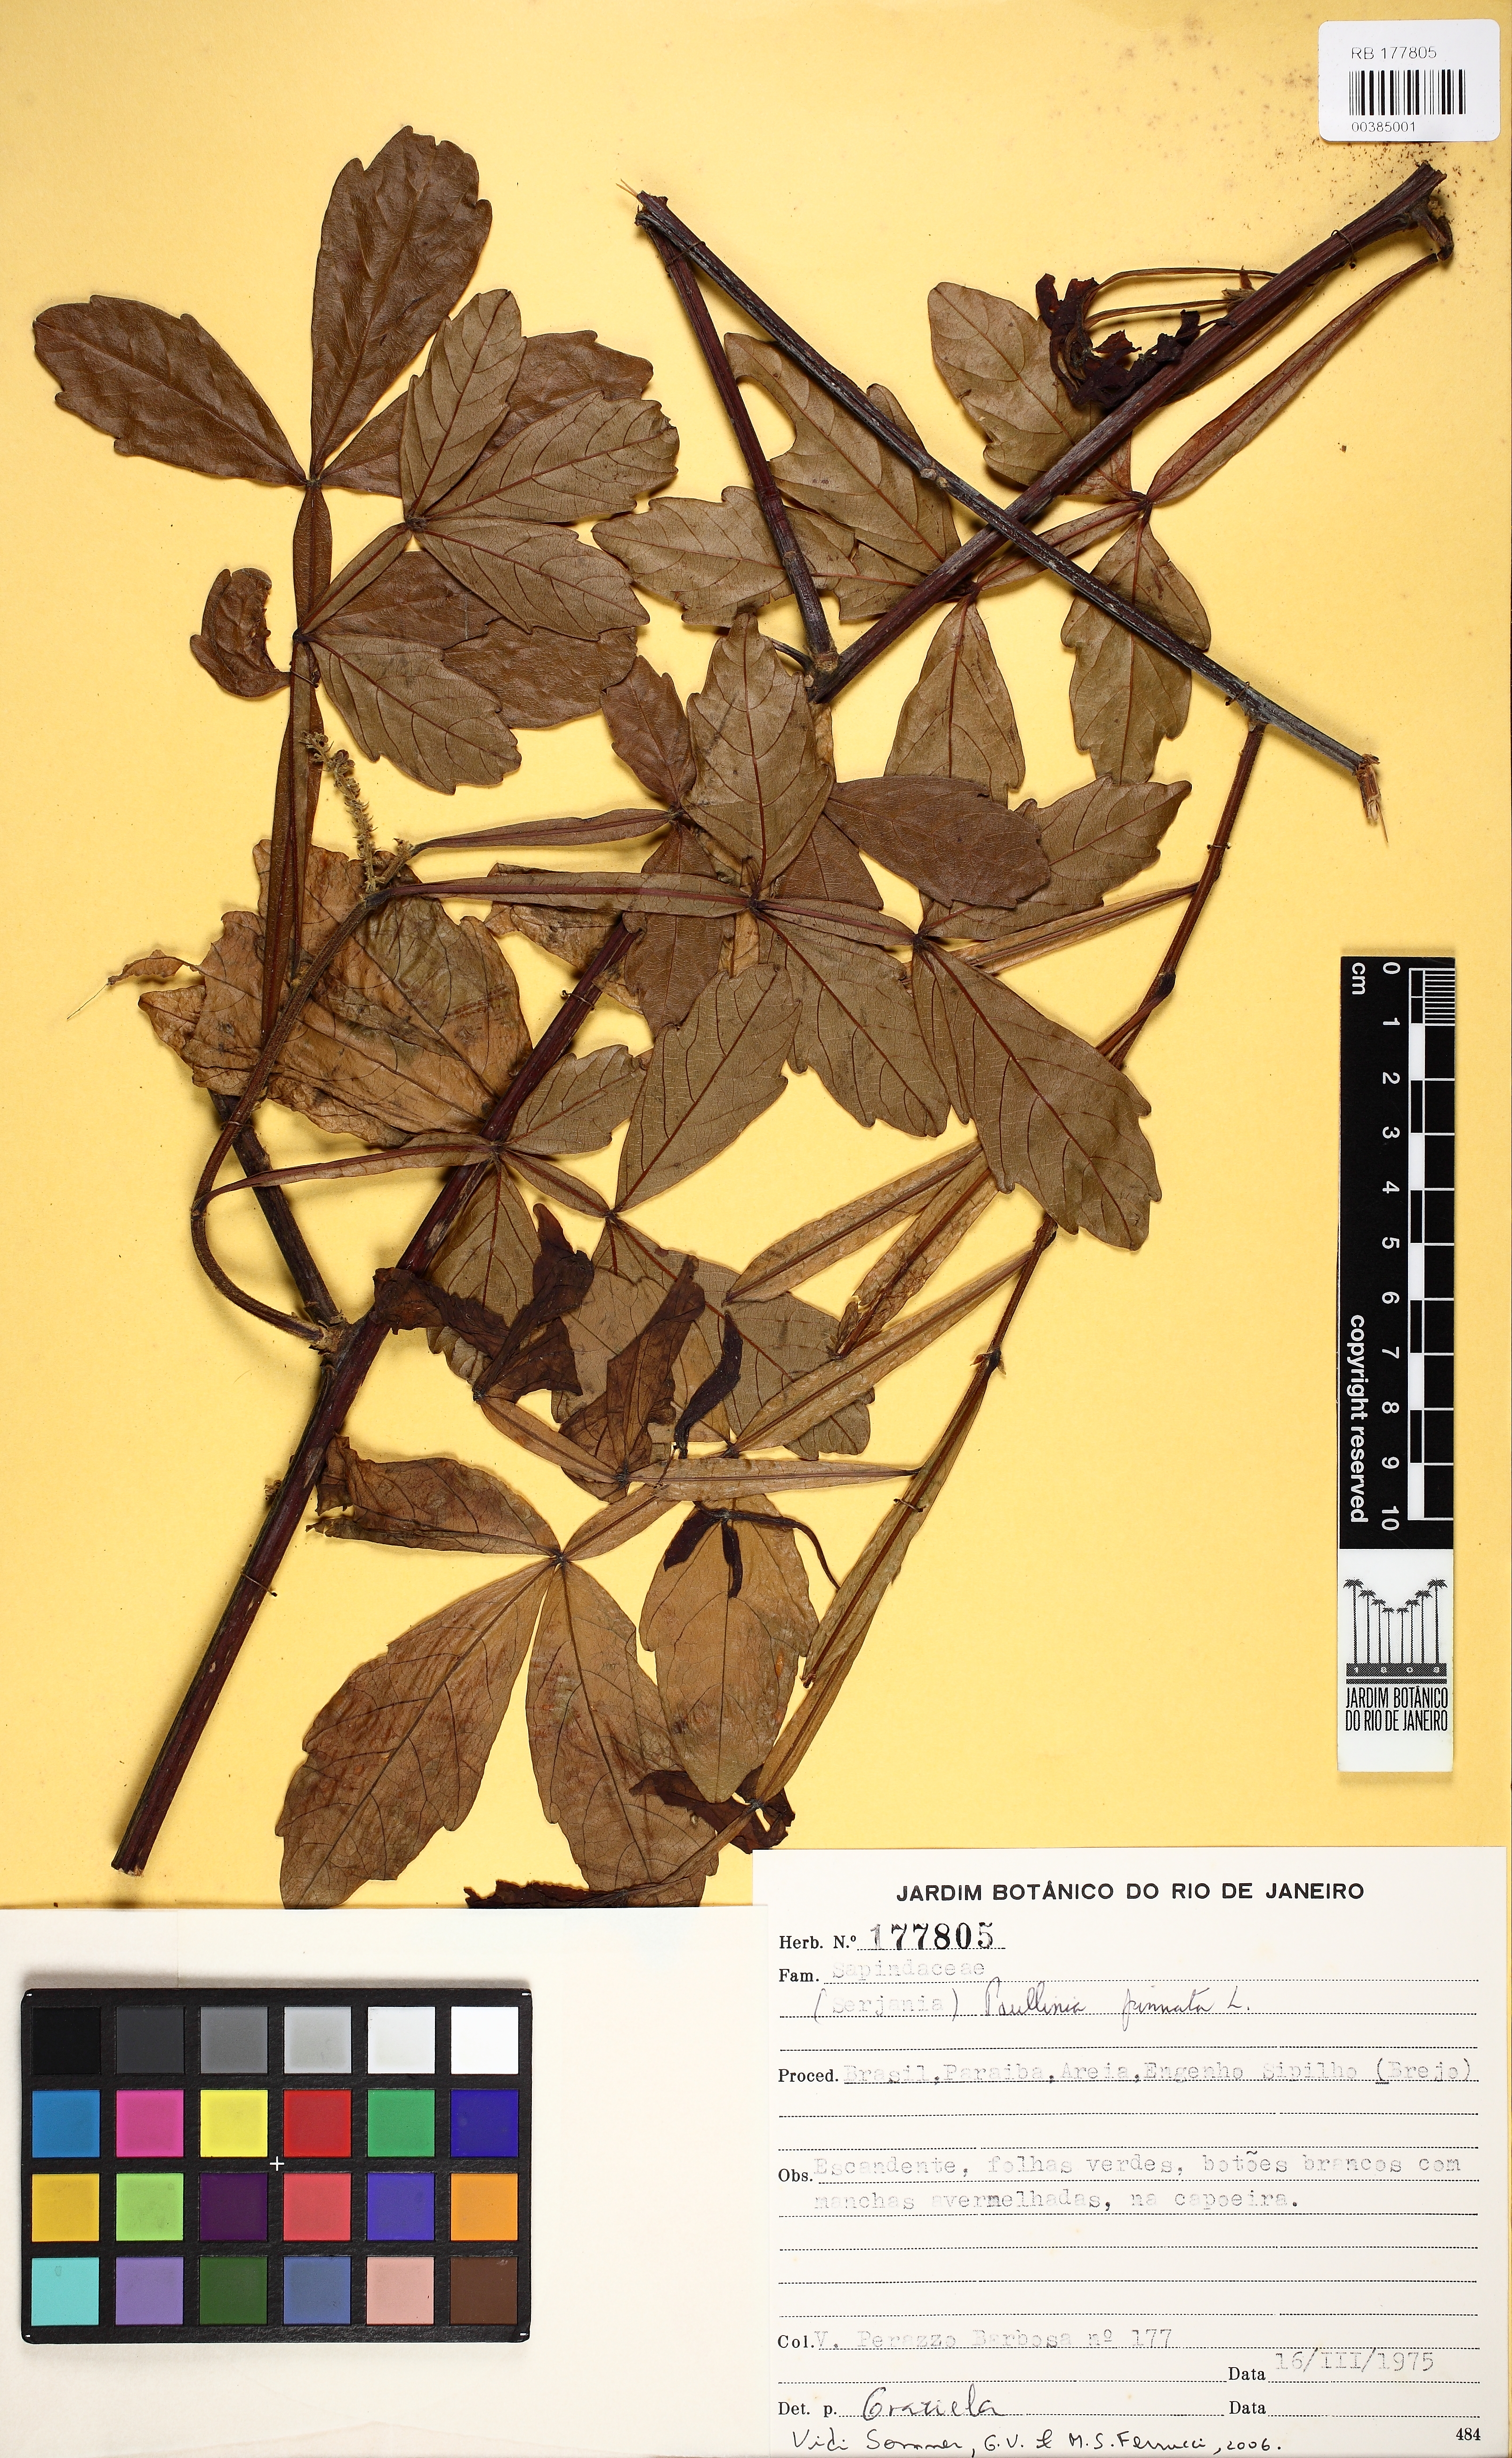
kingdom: Plantae
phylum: Tracheophyta
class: Magnoliopsida
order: Sapindales
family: Sapindaceae
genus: Paullinia
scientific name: Paullinia pinnata
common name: Barbasco
